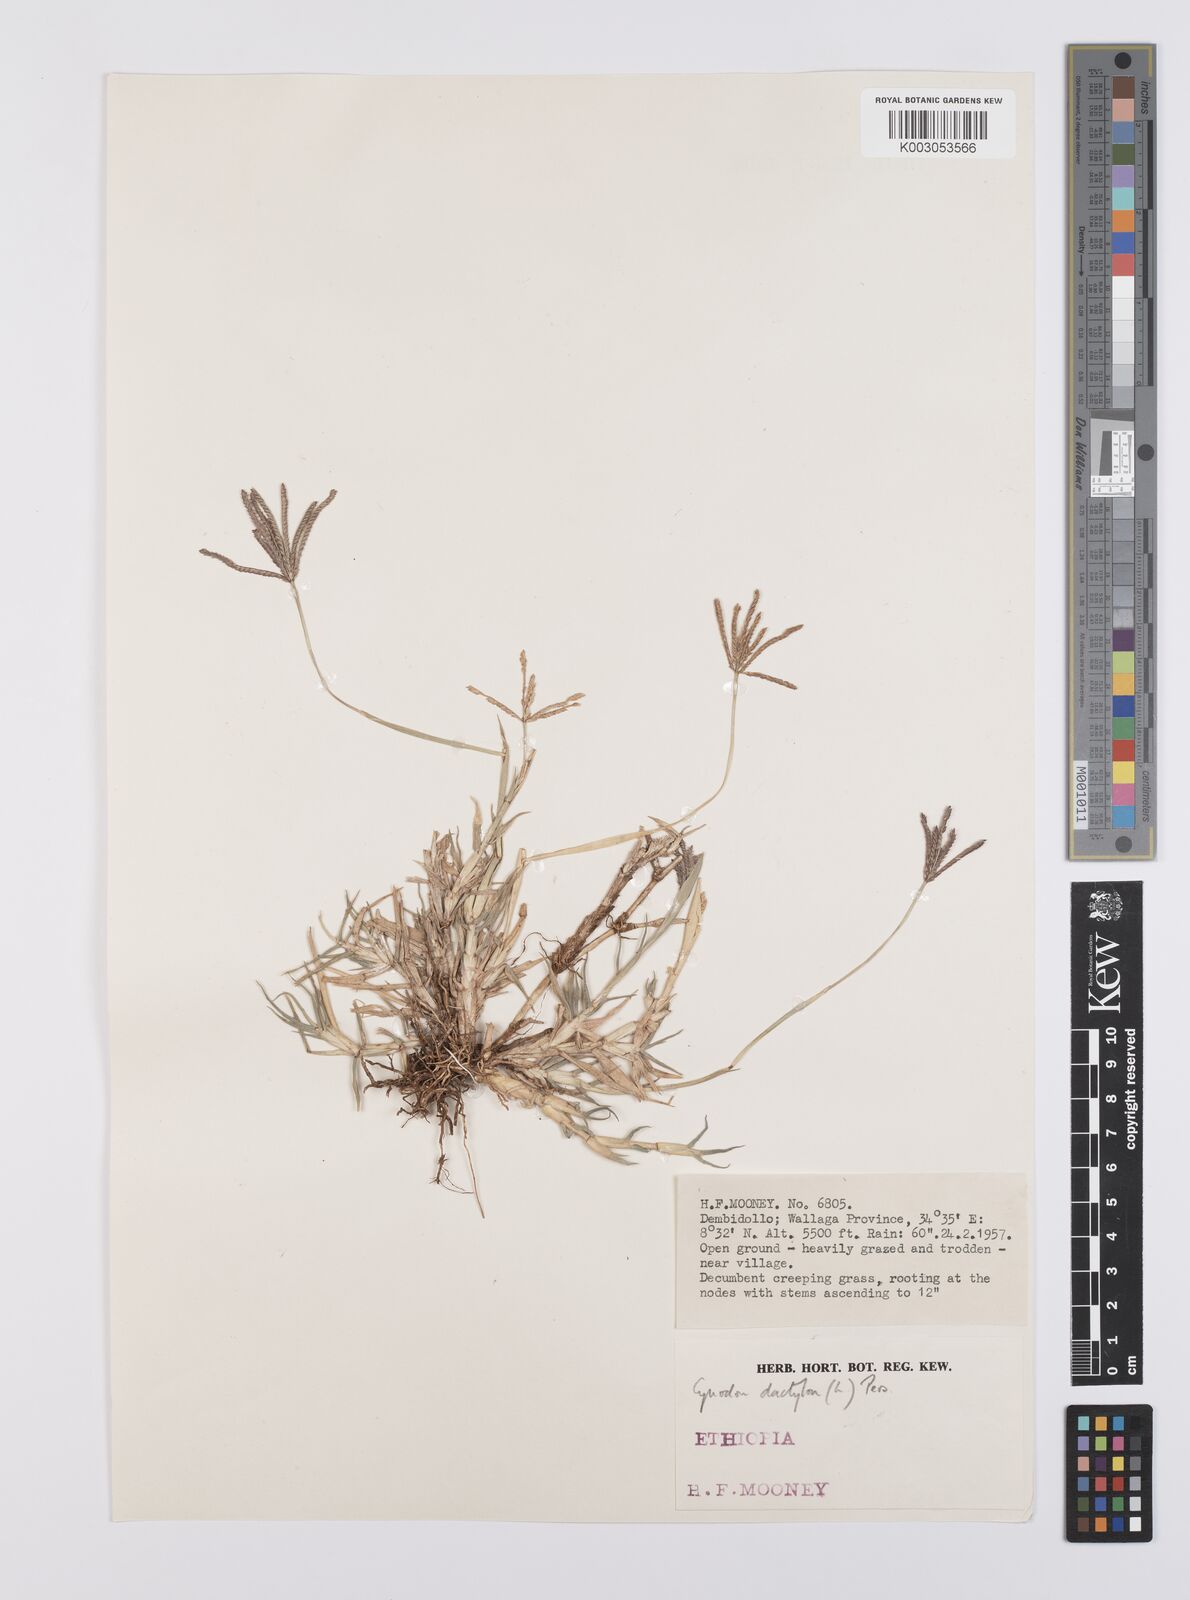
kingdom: Plantae
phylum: Tracheophyta
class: Liliopsida
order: Poales
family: Poaceae
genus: Cynodon
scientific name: Cynodon dactylon
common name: Bermuda grass
